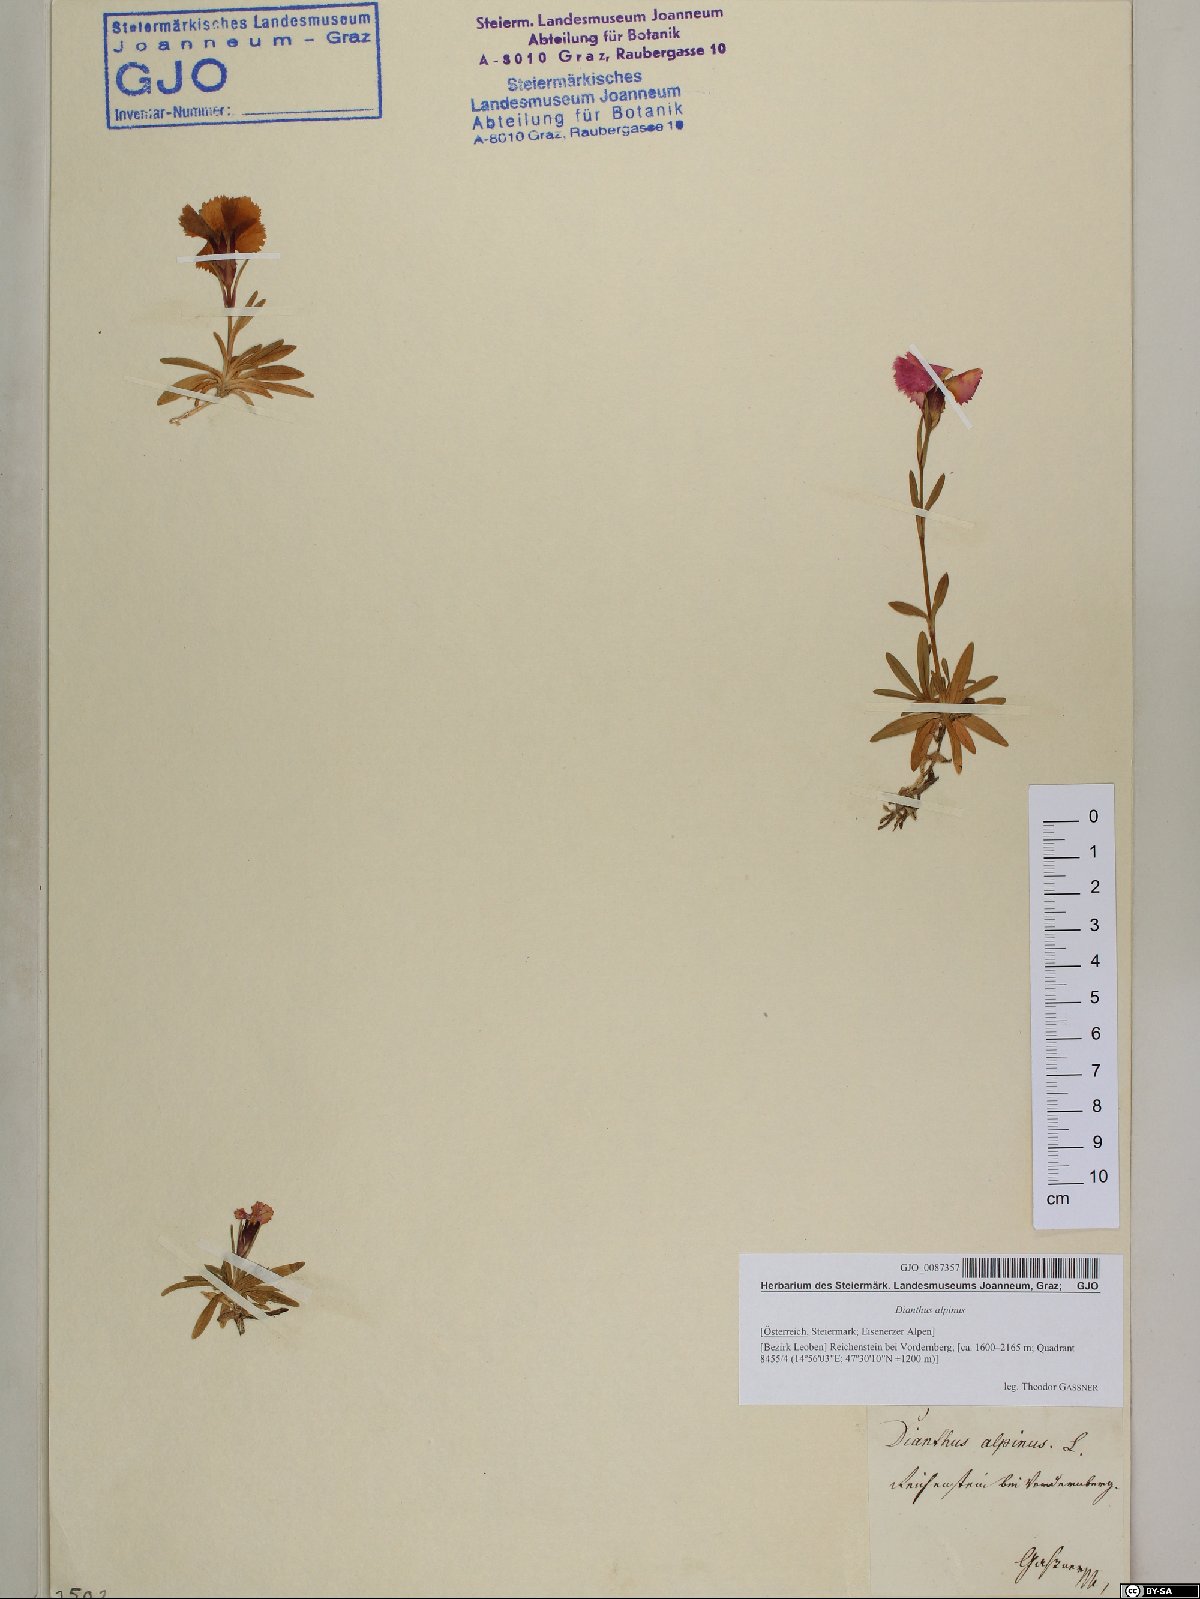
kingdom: Plantae
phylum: Tracheophyta
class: Magnoliopsida
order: Caryophyllales
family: Caryophyllaceae
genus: Dianthus
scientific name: Dianthus alpinus
